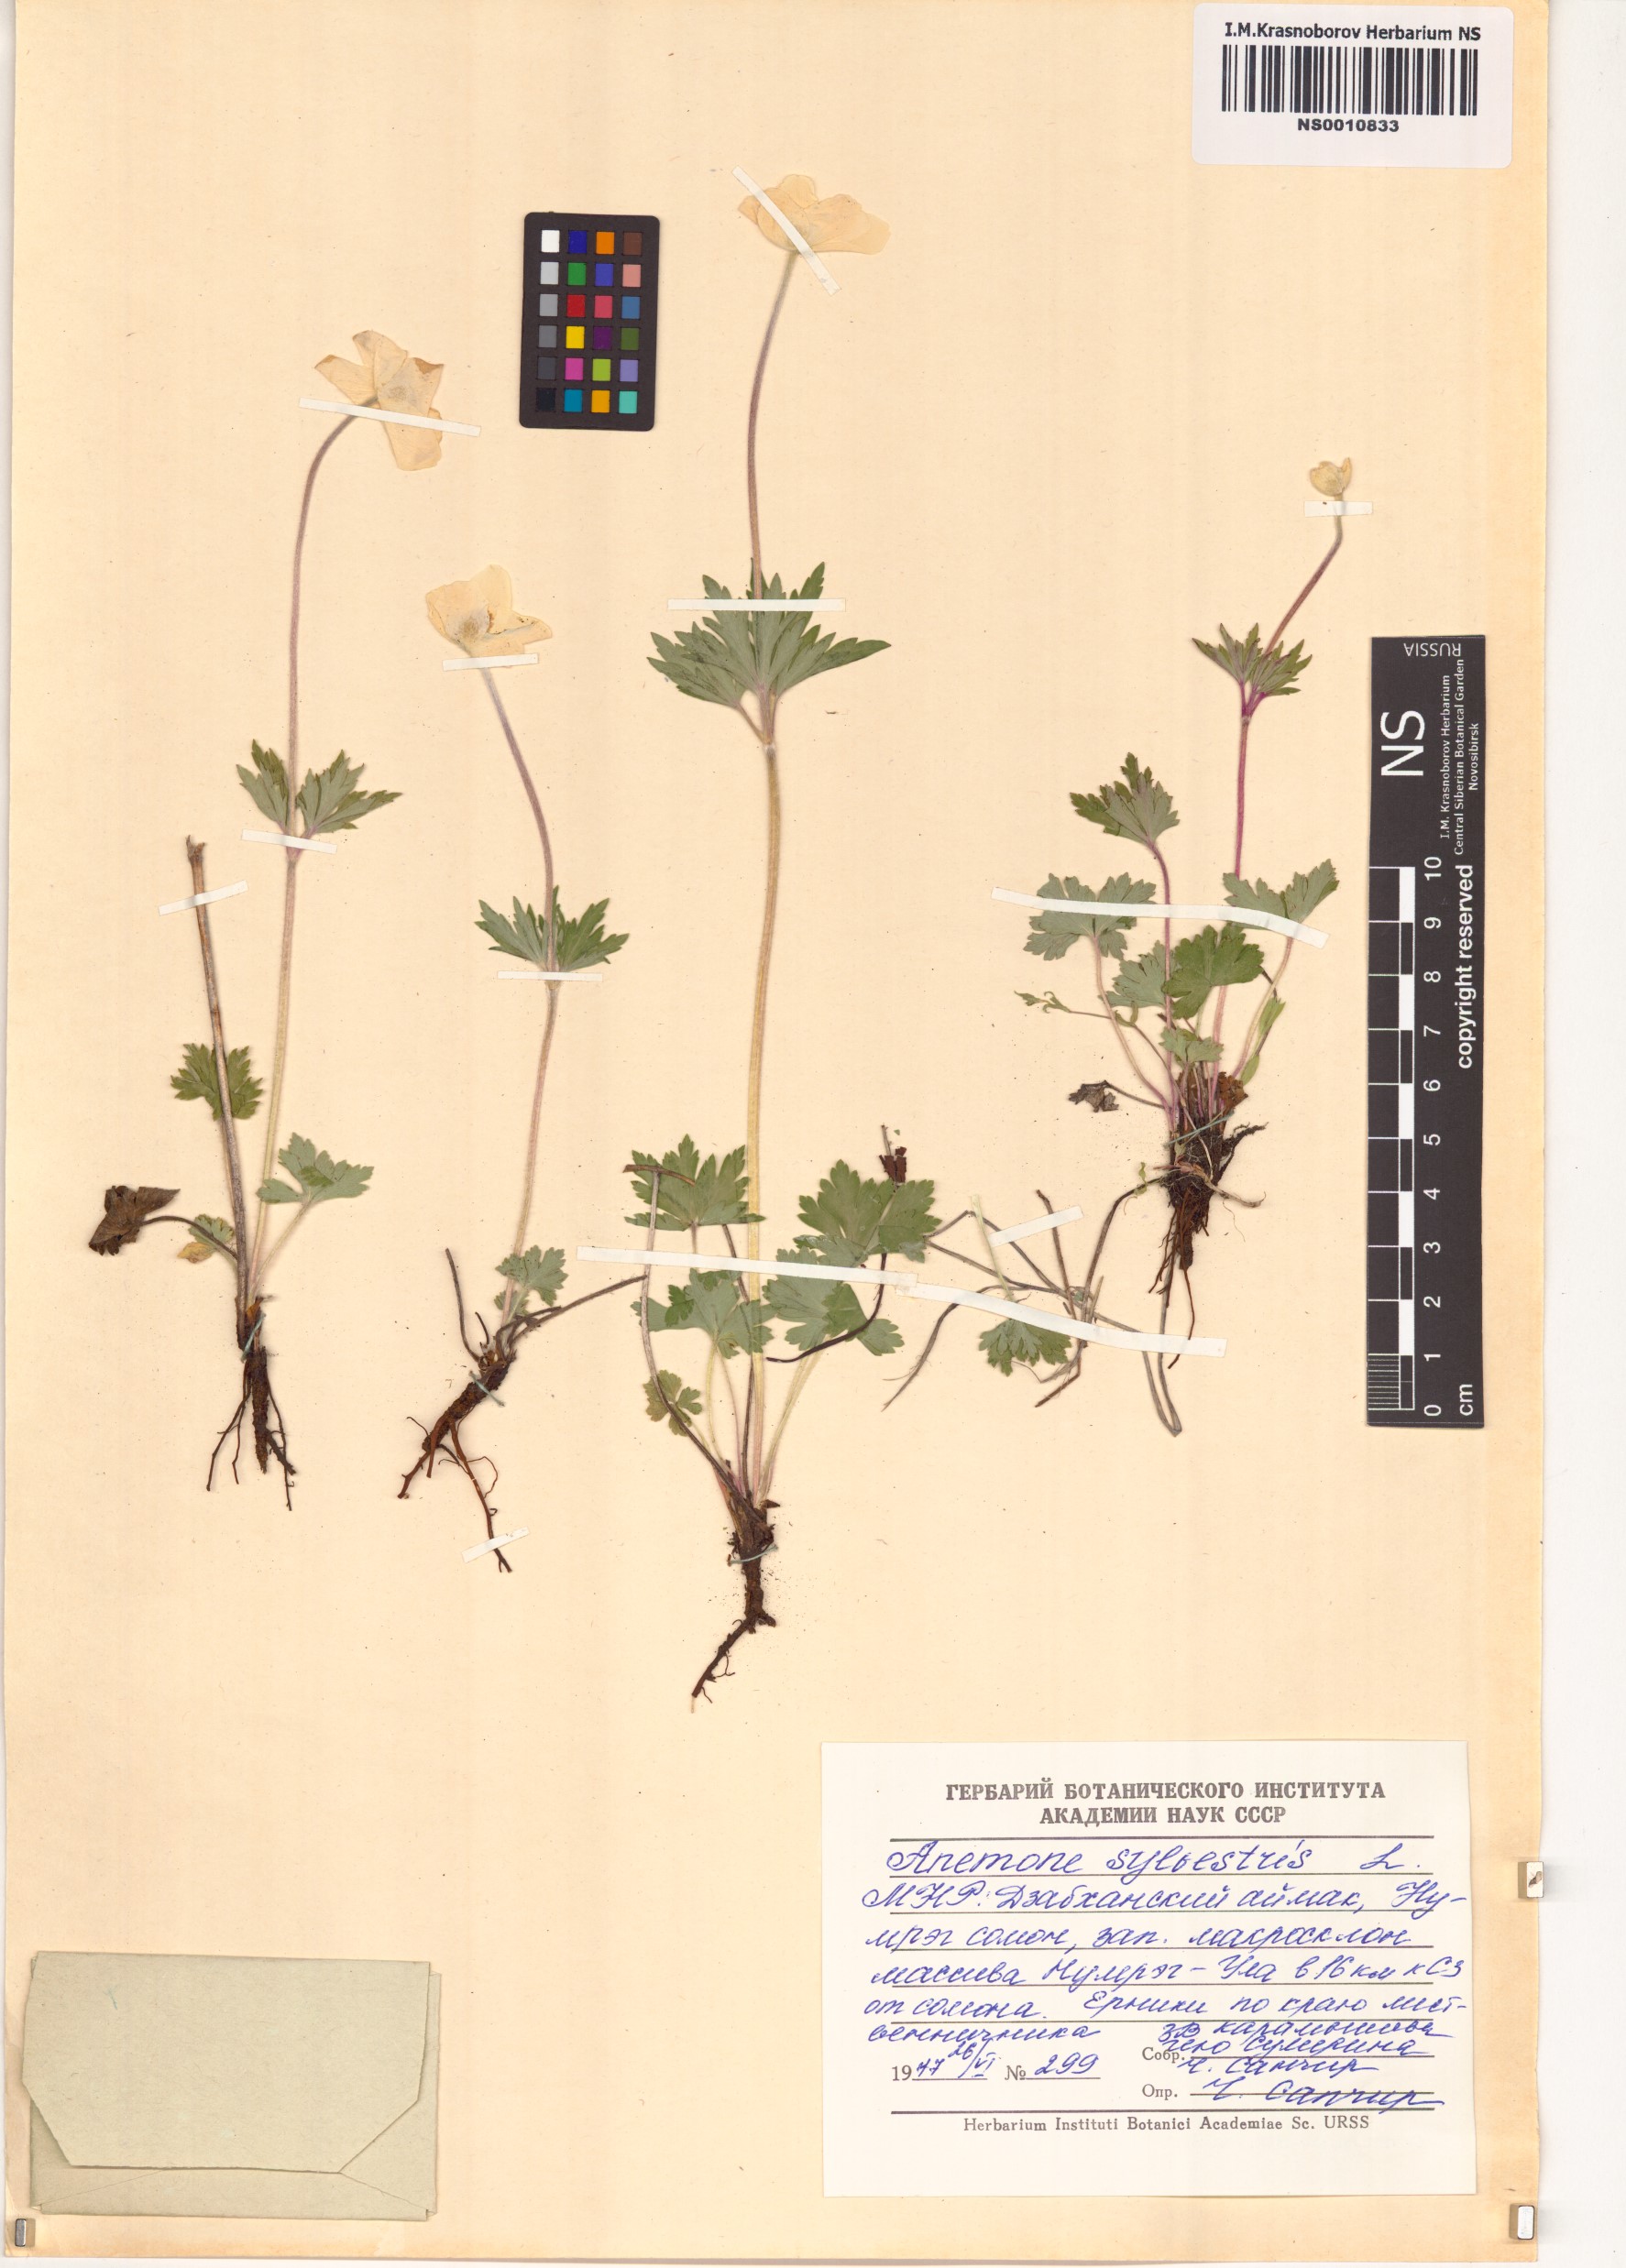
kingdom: Plantae
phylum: Tracheophyta
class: Magnoliopsida
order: Ranunculales
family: Ranunculaceae
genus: Anemone
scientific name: Anemone sylvestris
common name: Snowdrop anemone
